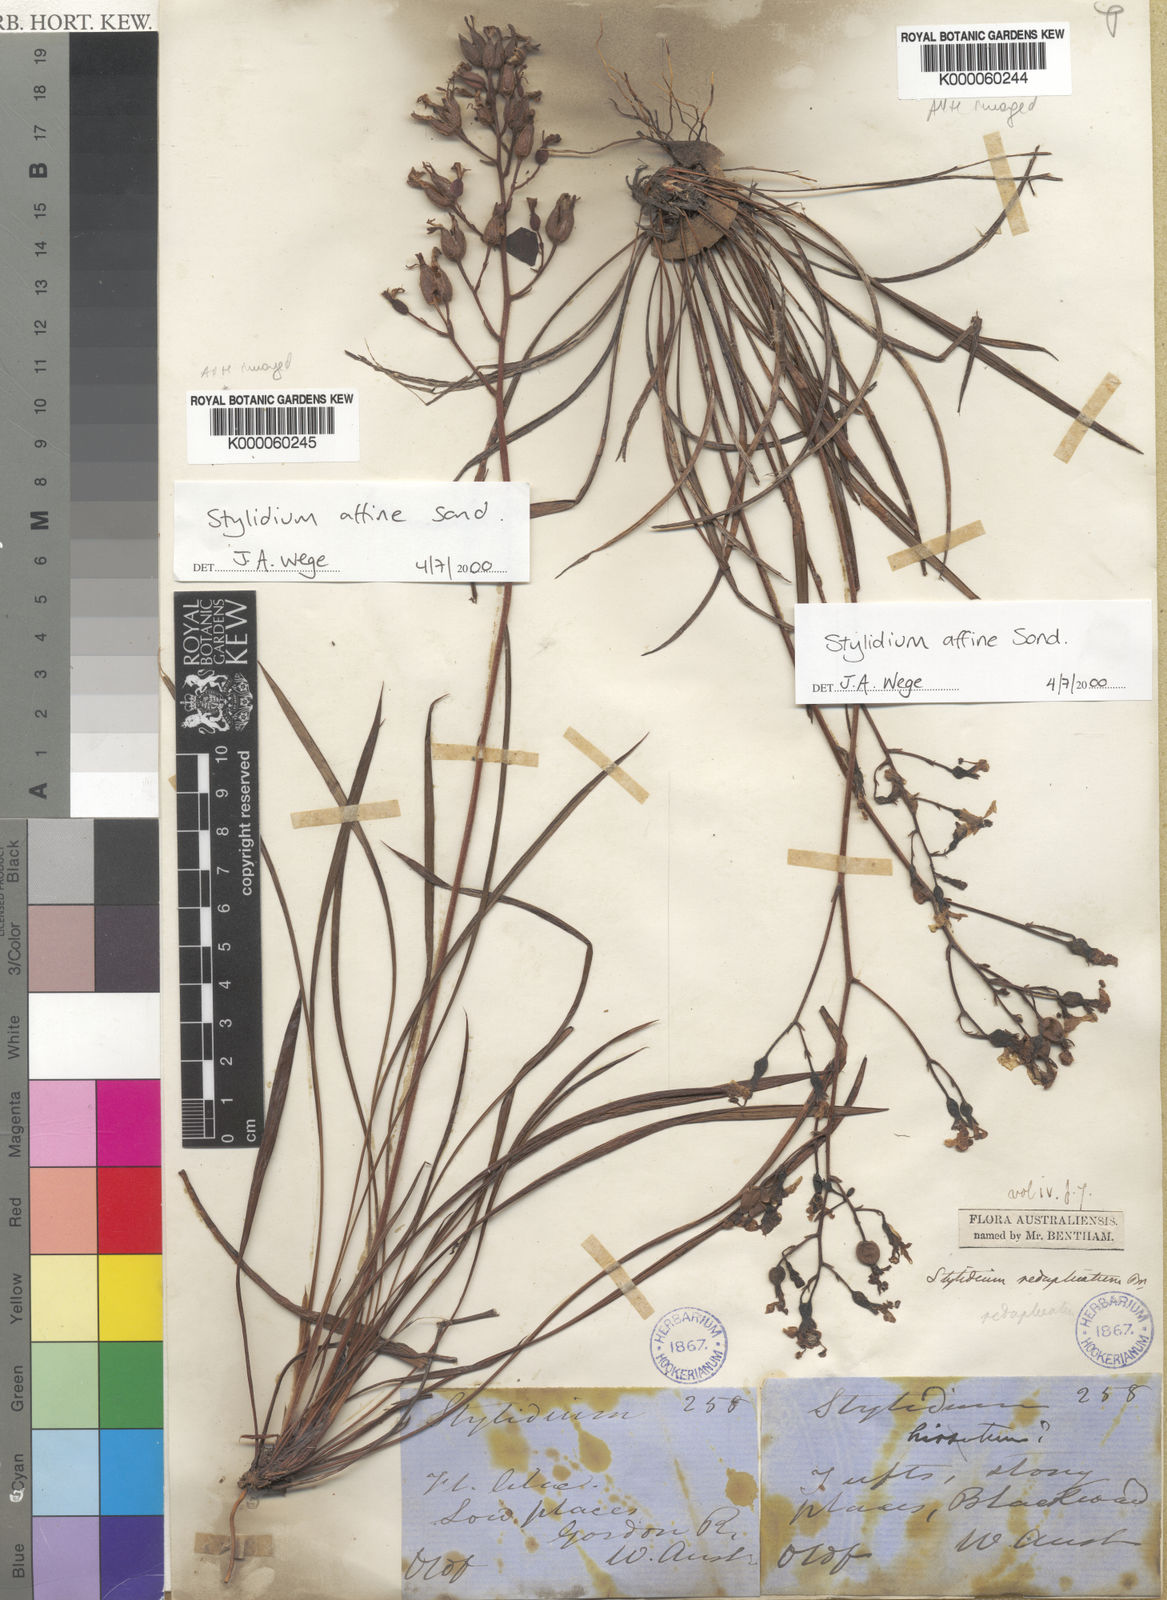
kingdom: Plantae
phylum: Tracheophyta
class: Magnoliopsida
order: Asterales
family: Stylidiaceae
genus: Stylidium
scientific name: Stylidium affine
